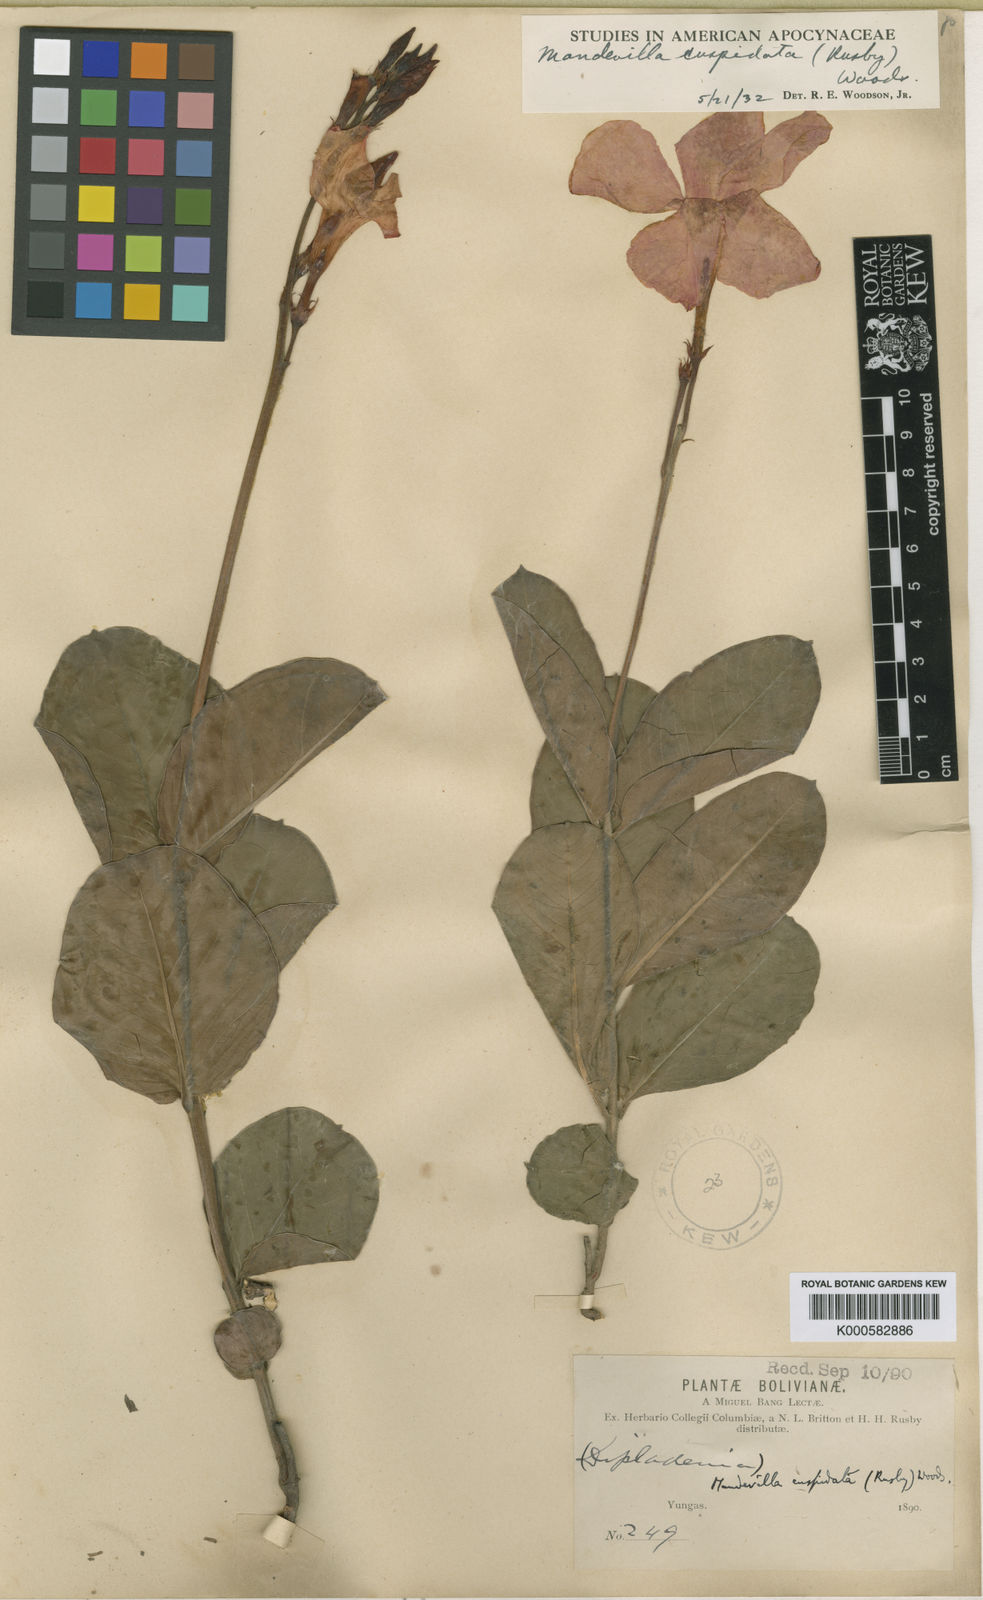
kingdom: Plantae
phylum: Tracheophyta
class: Magnoliopsida
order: Gentianales
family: Apocynaceae
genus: Mandevilla
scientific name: Mandevilla cuspidata
